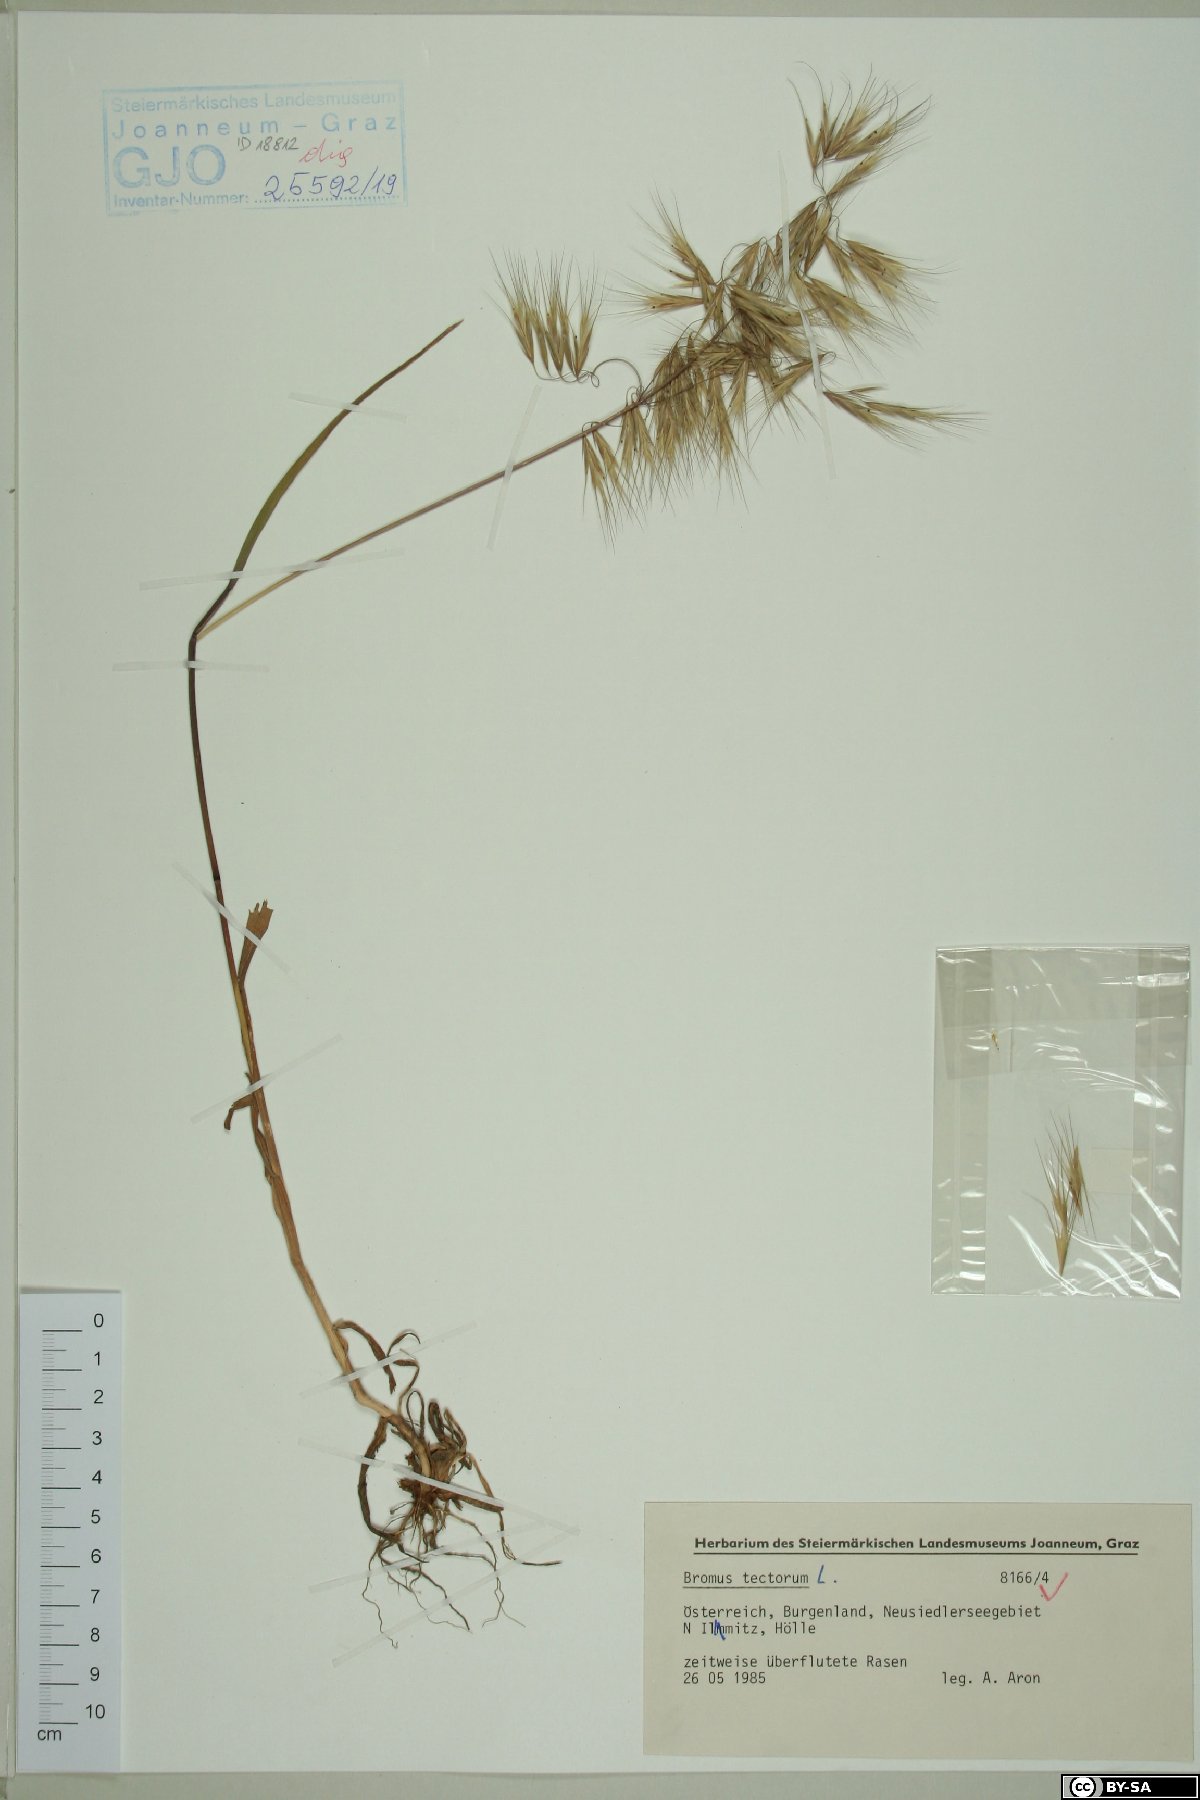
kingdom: Plantae
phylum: Tracheophyta
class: Liliopsida
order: Poales
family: Poaceae
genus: Bromus
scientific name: Bromus tectorum
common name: Cheatgrass
